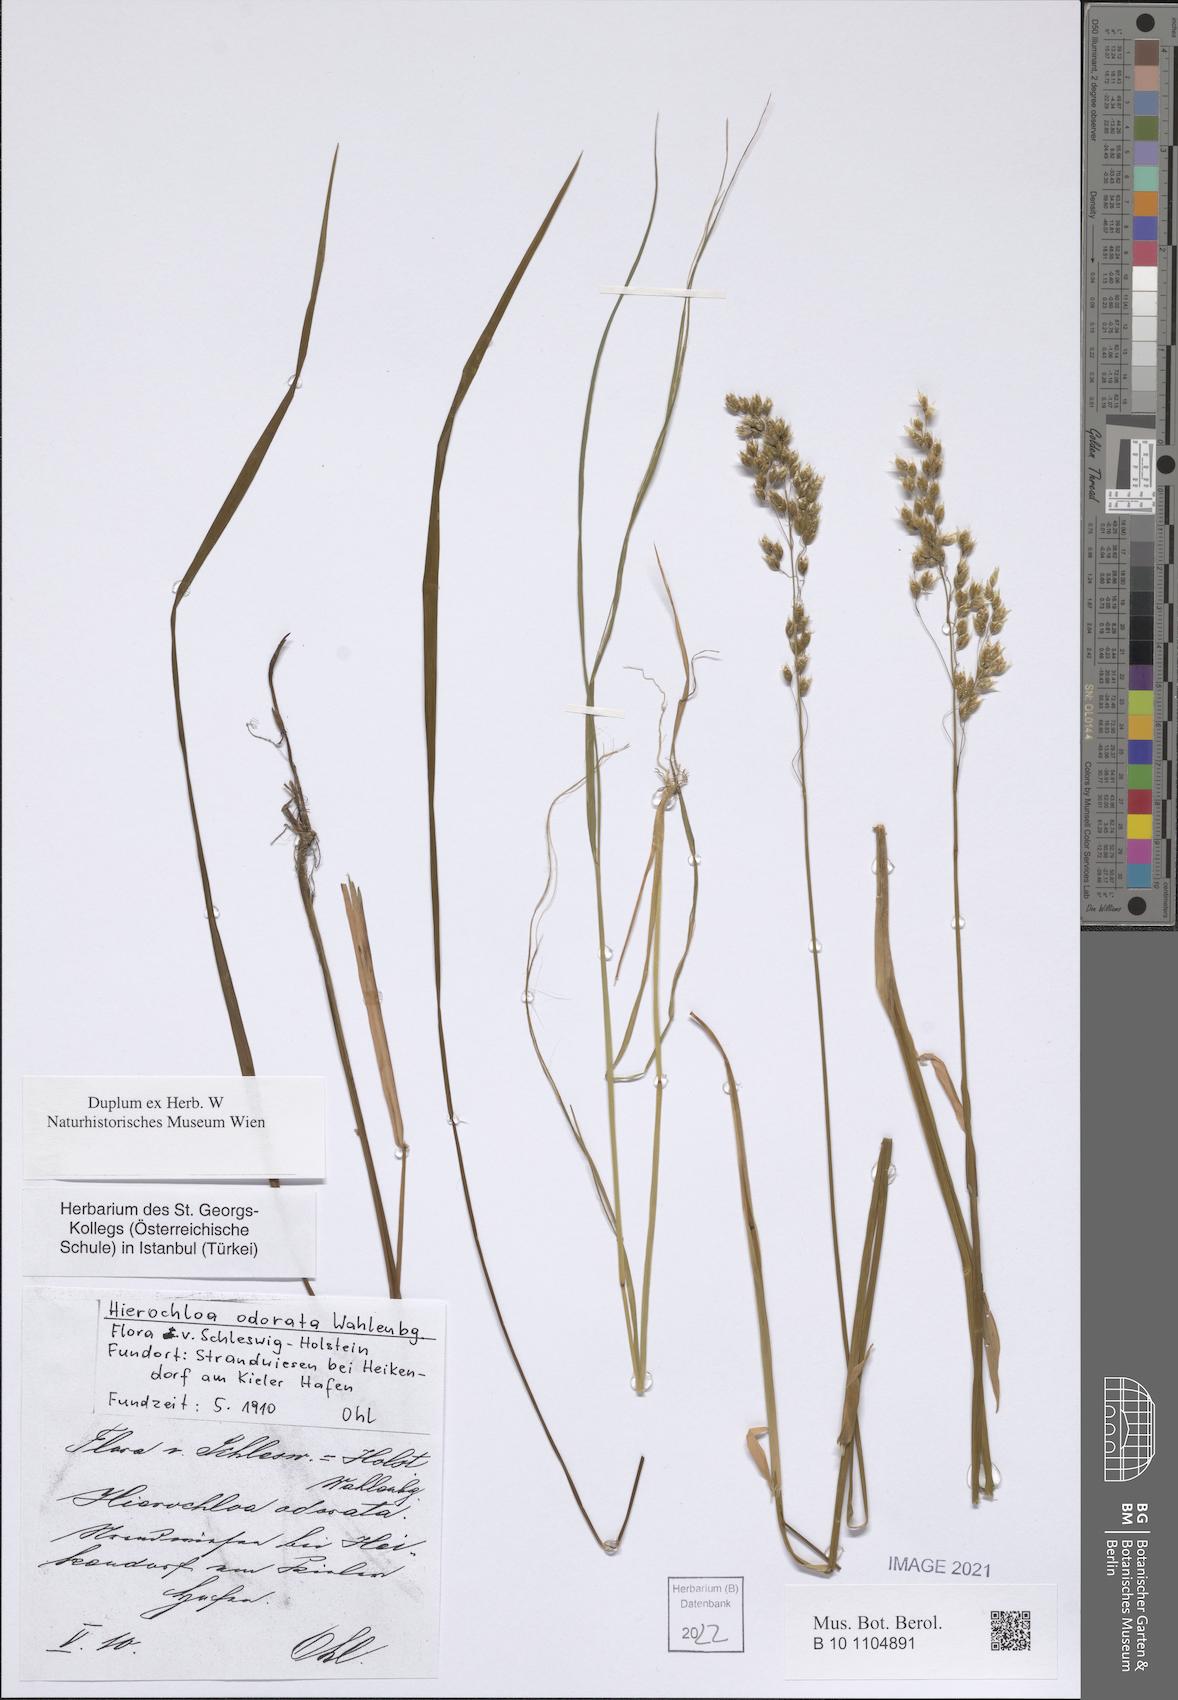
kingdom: Plantae
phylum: Tracheophyta
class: Liliopsida
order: Poales
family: Poaceae
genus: Anthoxanthum
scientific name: Anthoxanthum nitens
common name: Holy grass
